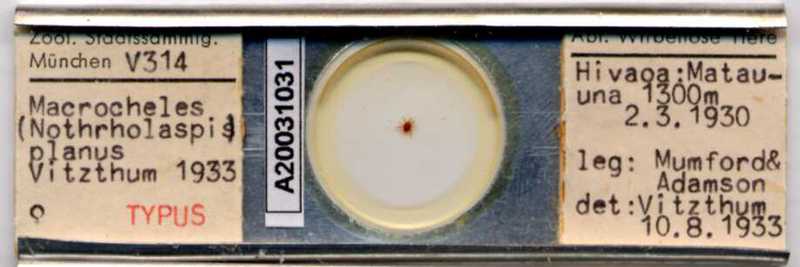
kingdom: Animalia
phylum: Arthropoda
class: Arachnida
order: Mesostigmata
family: Macrochelidae
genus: Nothrholaspis
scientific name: Nothrholaspis planus
